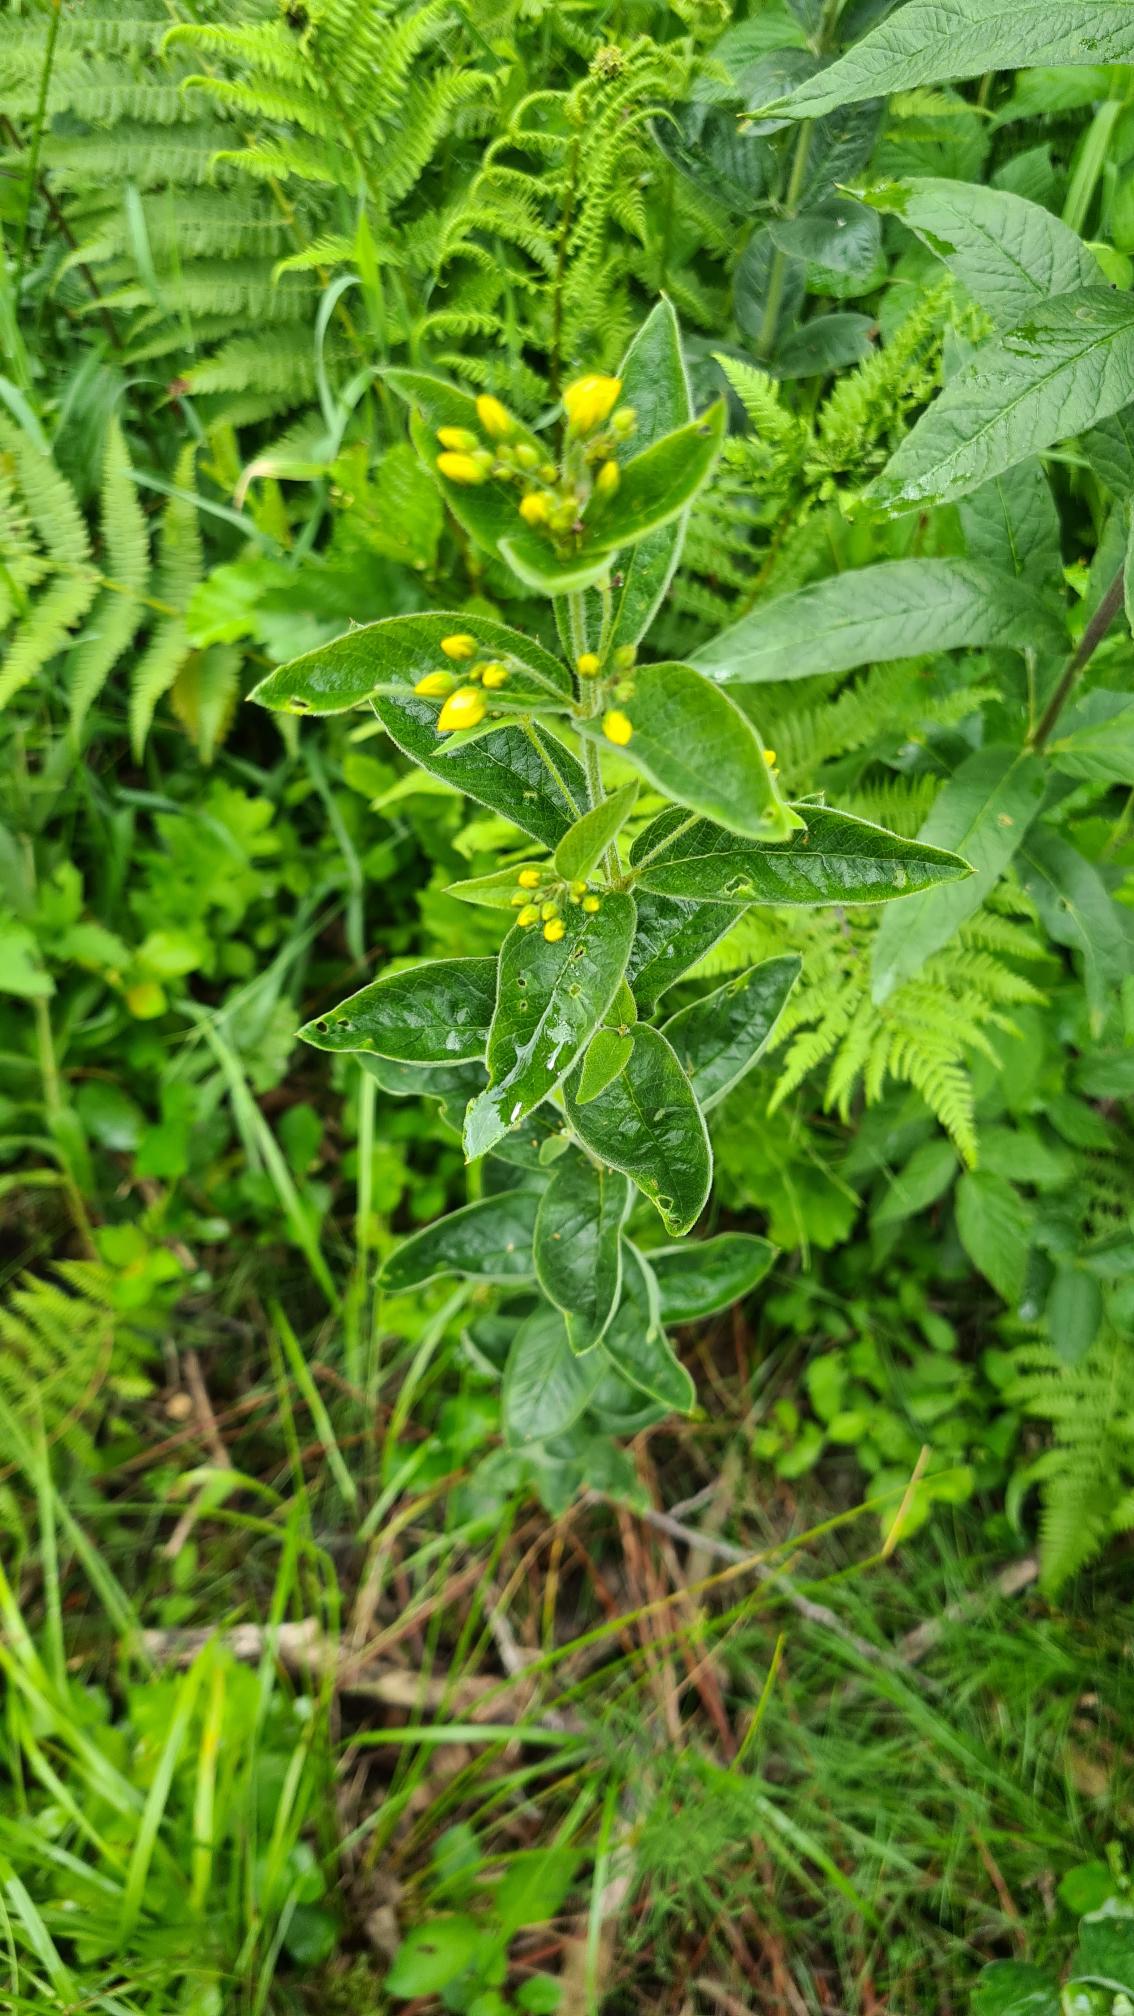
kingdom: Plantae
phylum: Tracheophyta
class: Magnoliopsida
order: Ericales
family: Primulaceae
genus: Lysimachia
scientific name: Lysimachia vulgaris
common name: Almindelig fredløs
